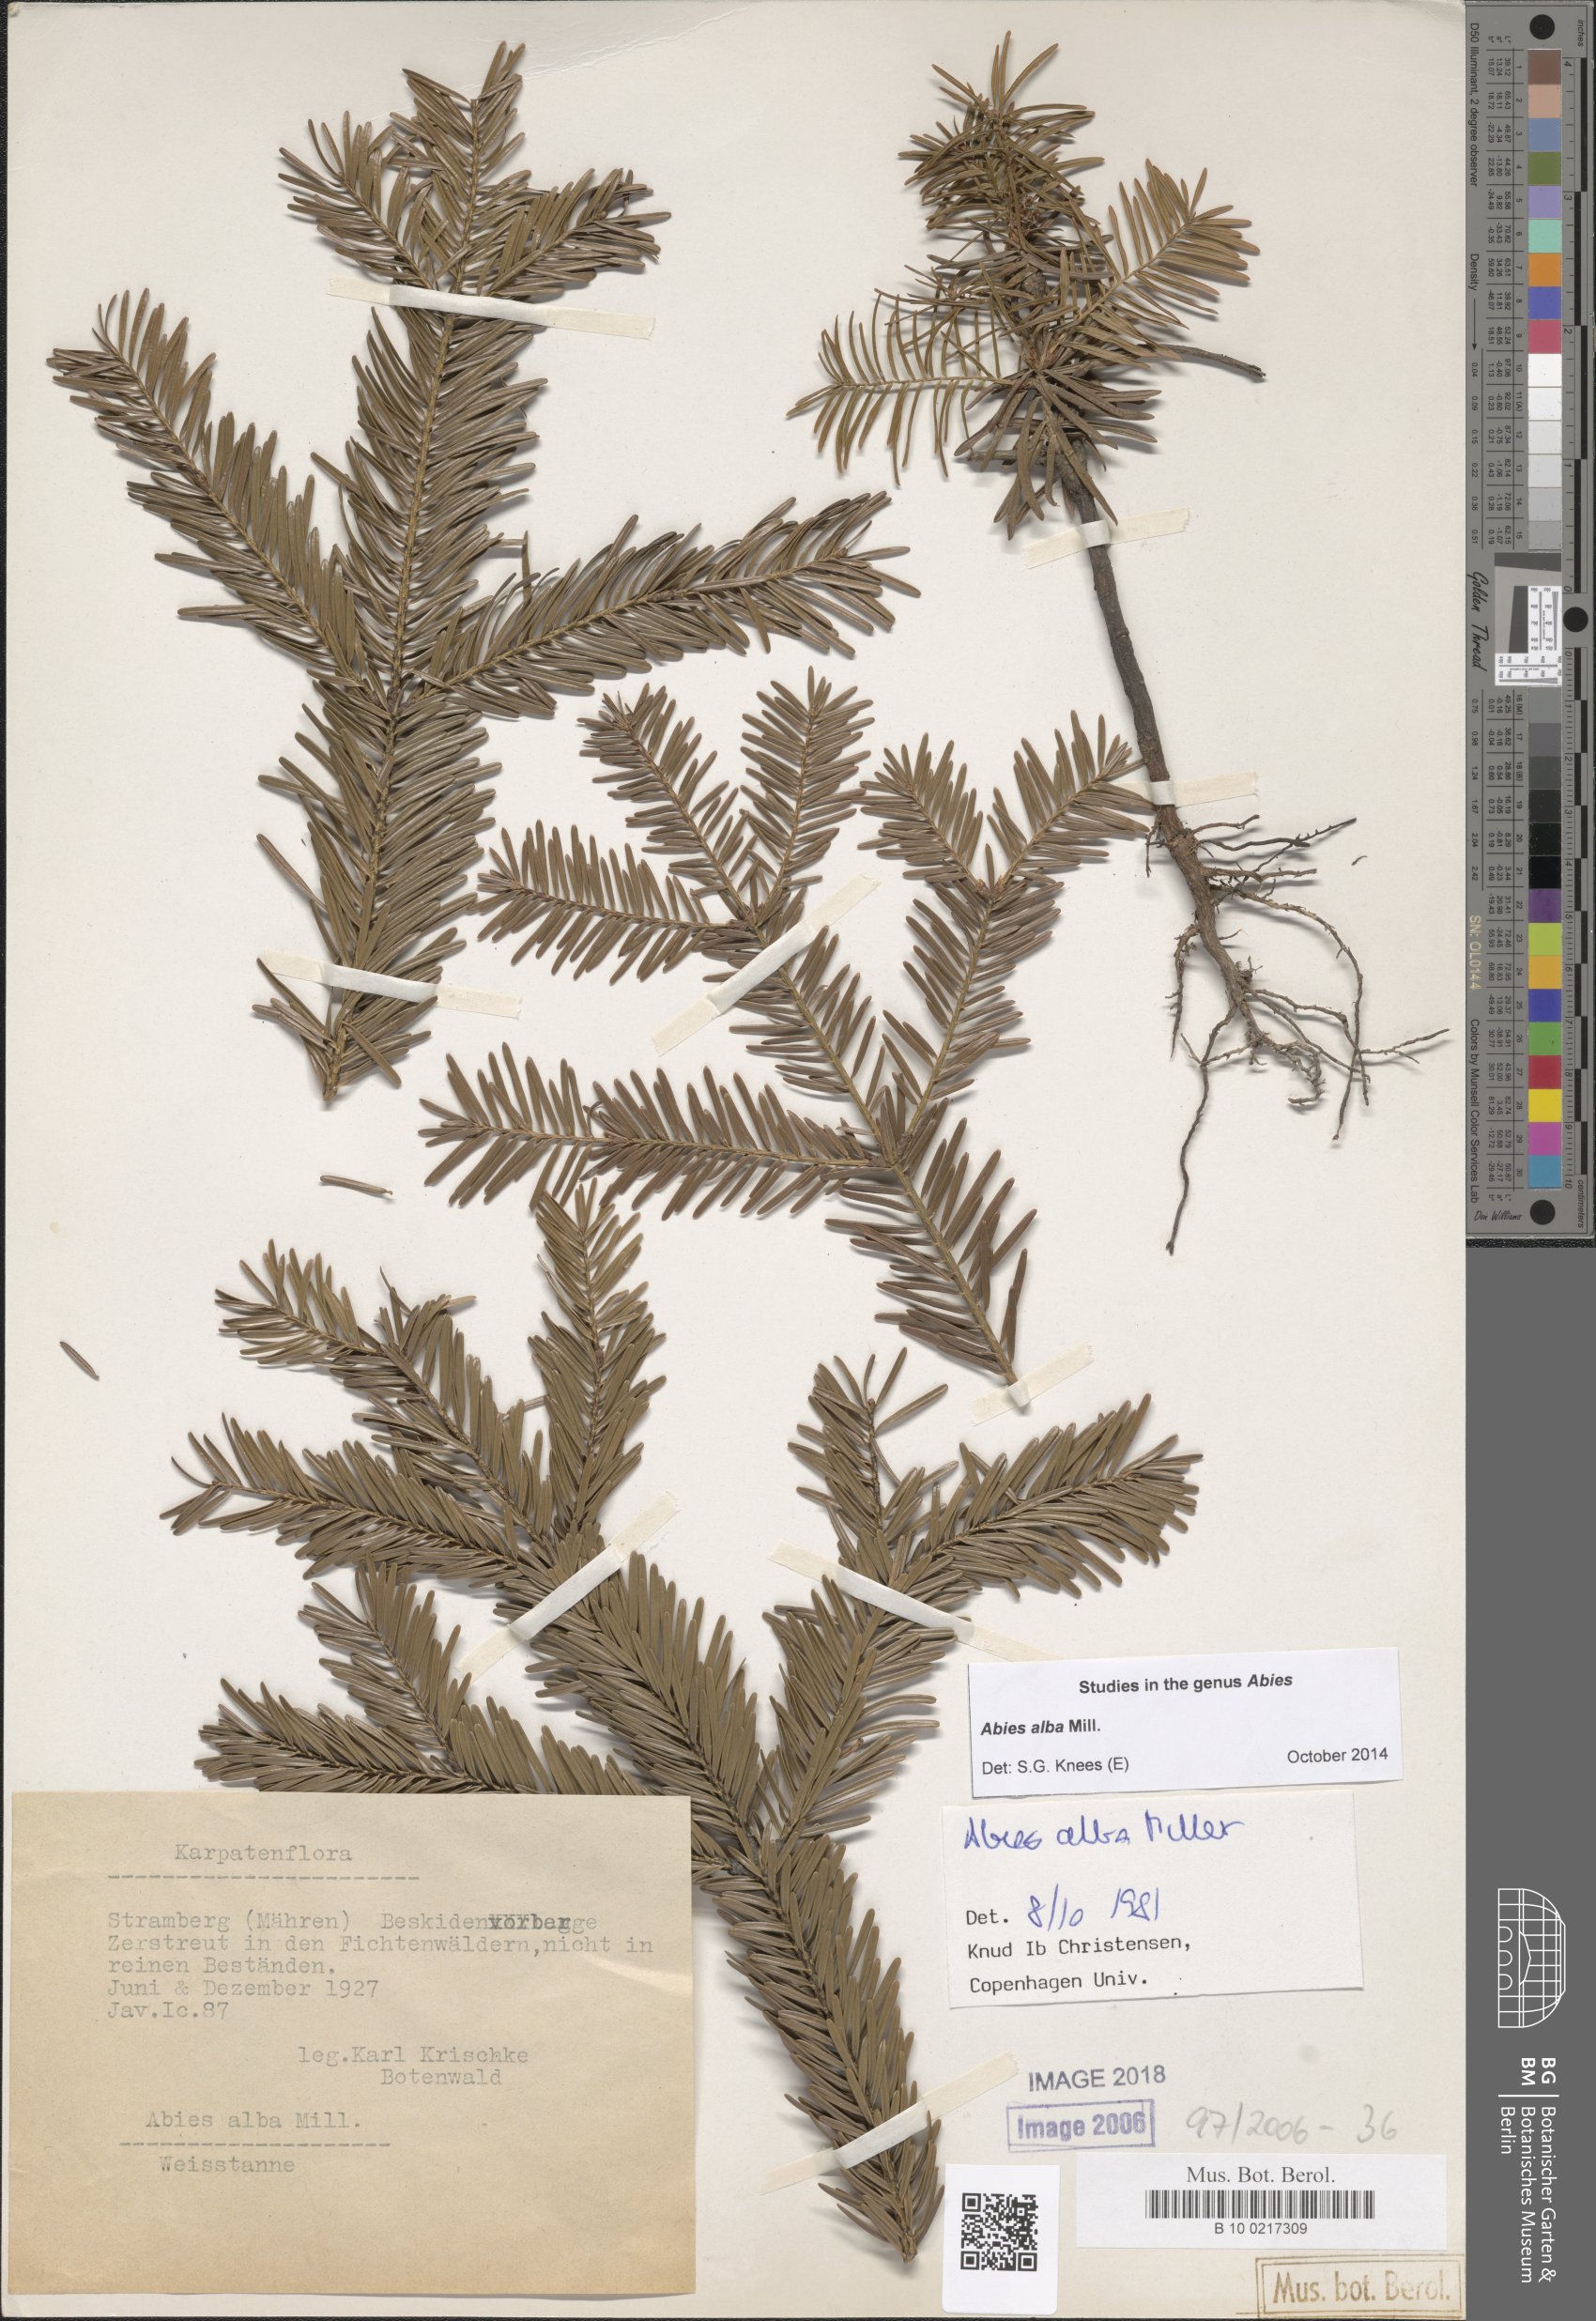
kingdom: Plantae
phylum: Tracheophyta
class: Pinopsida
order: Pinales
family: Pinaceae
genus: Abies
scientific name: Abies alba
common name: Silver fir
